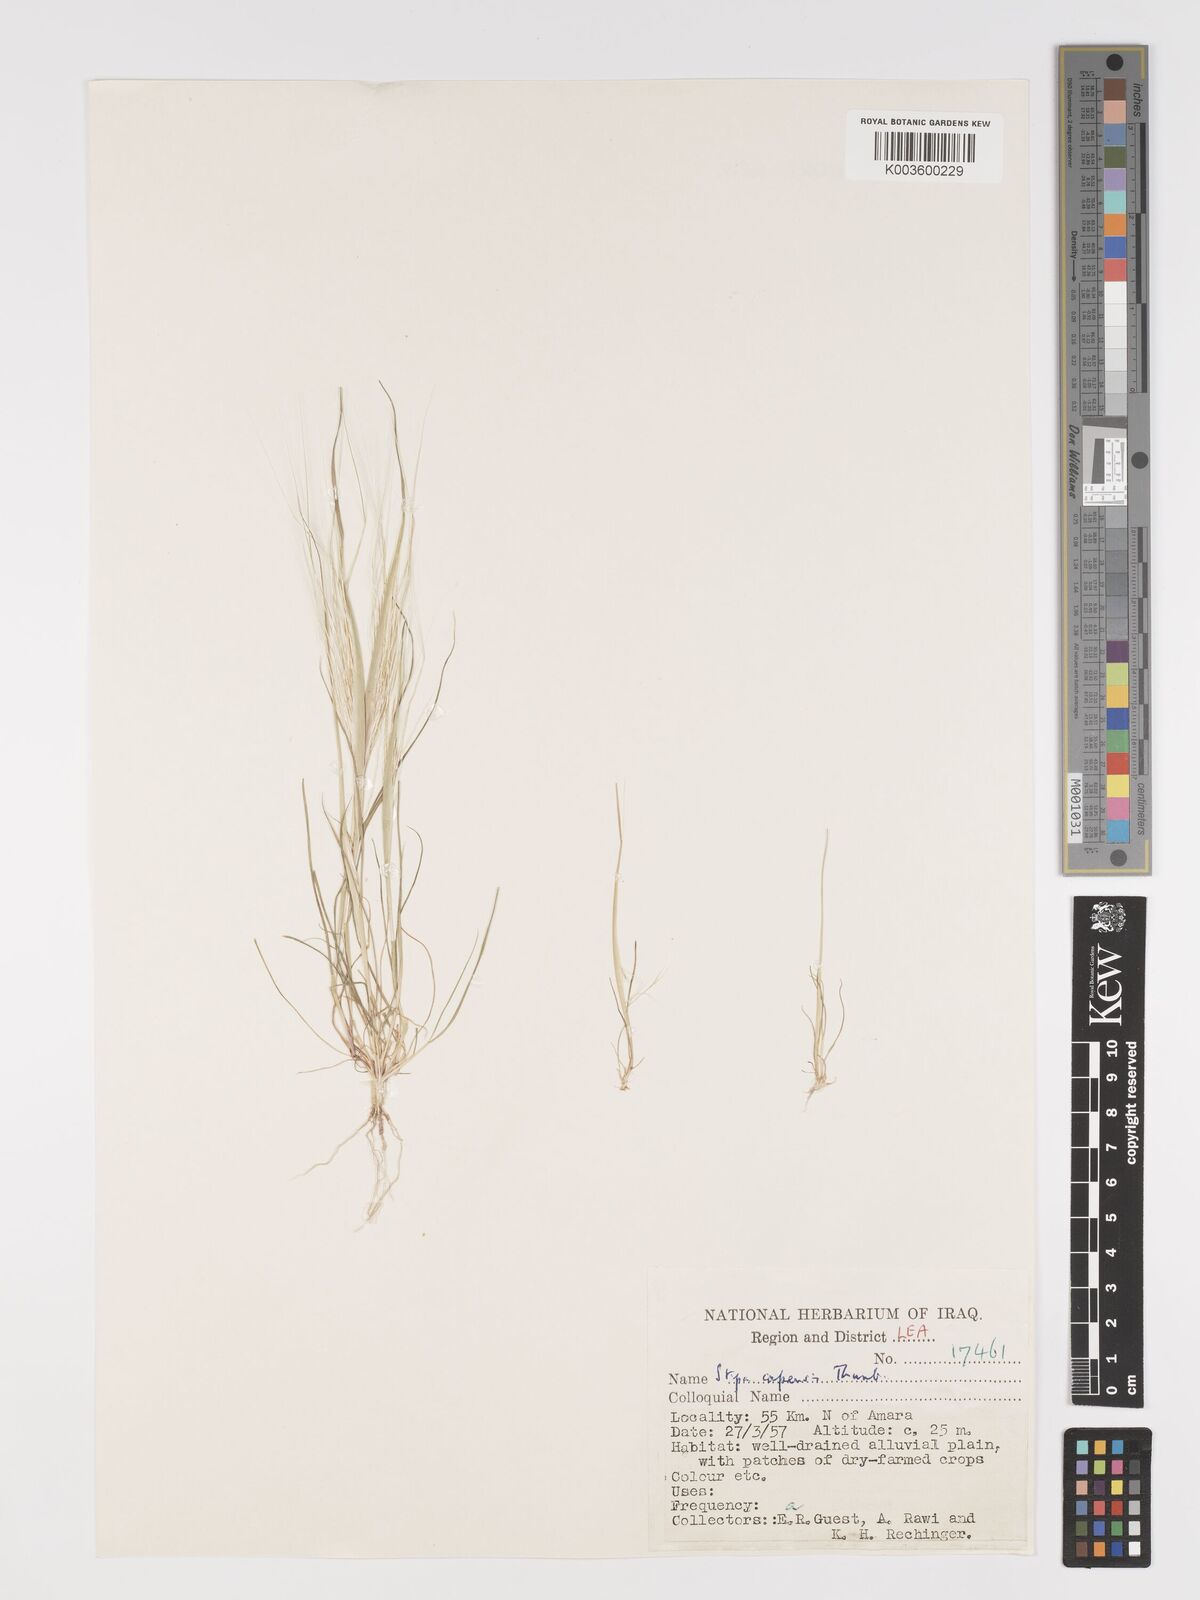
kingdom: Plantae
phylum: Tracheophyta
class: Liliopsida
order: Poales
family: Poaceae
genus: Stipellula
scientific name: Stipellula capensis
